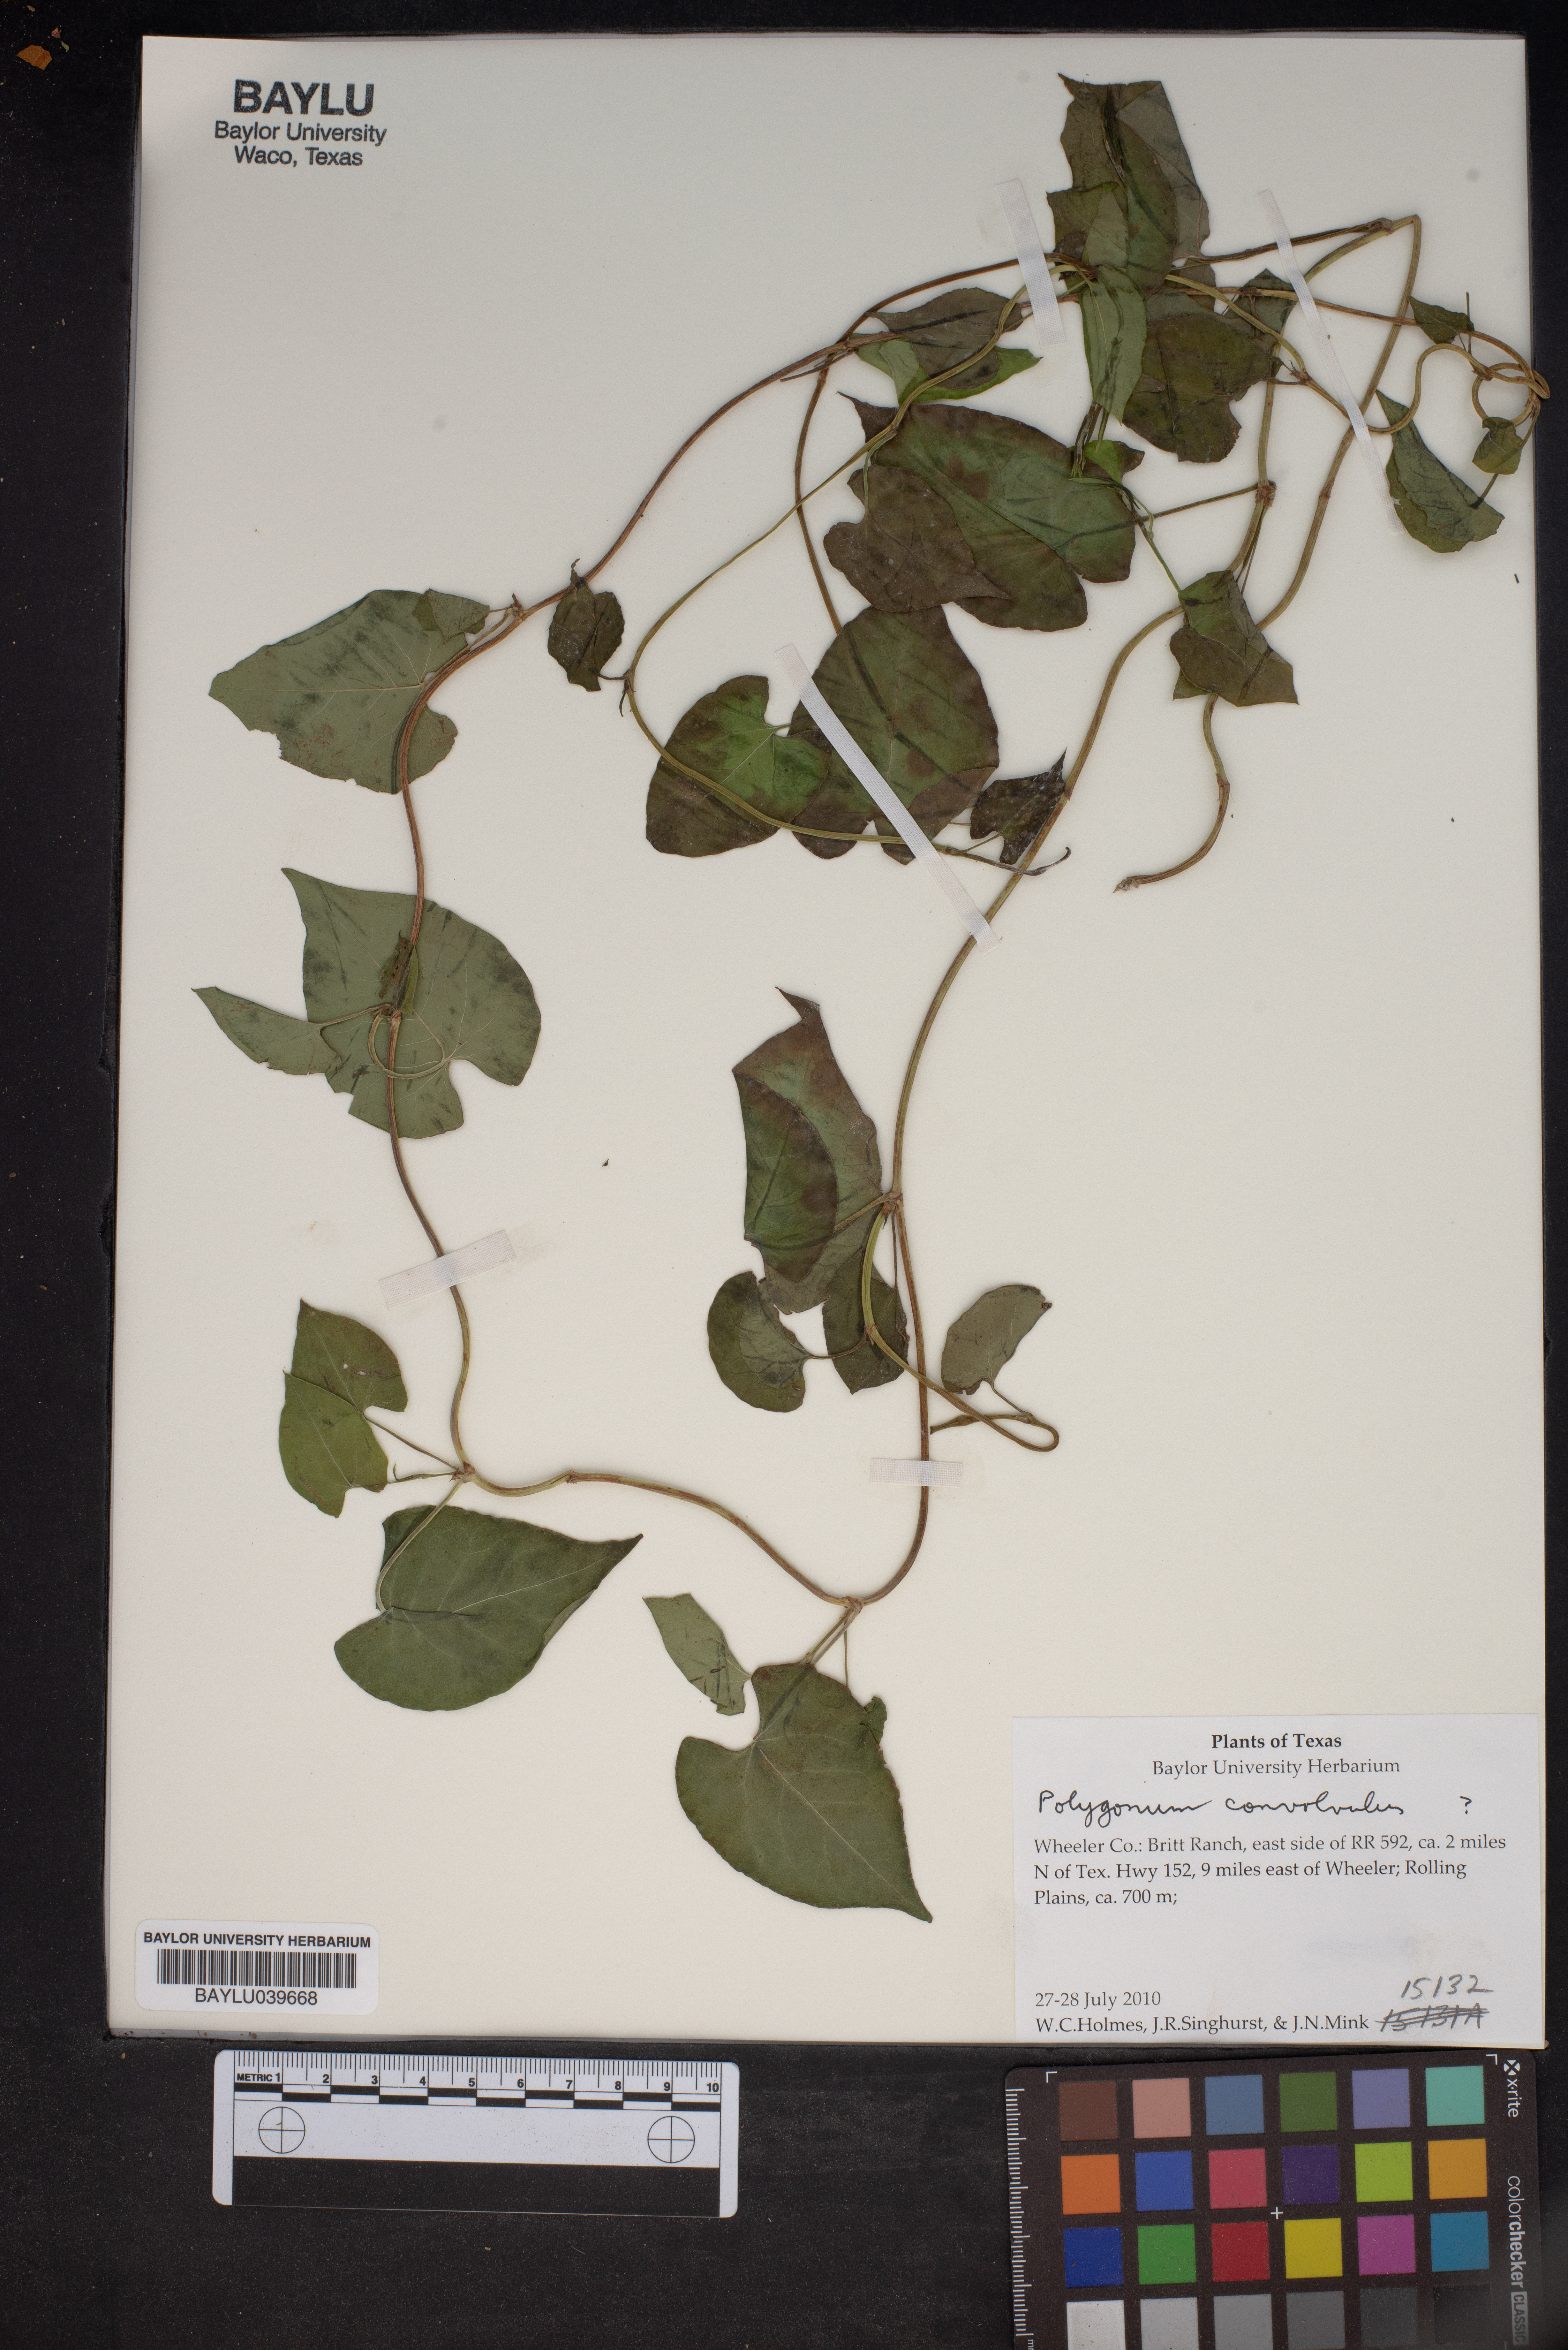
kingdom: Plantae
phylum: Tracheophyta
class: Magnoliopsida
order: Caryophyllales
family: Polygonaceae
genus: Fallopia
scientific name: Fallopia convolvulus
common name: Black bindweed
